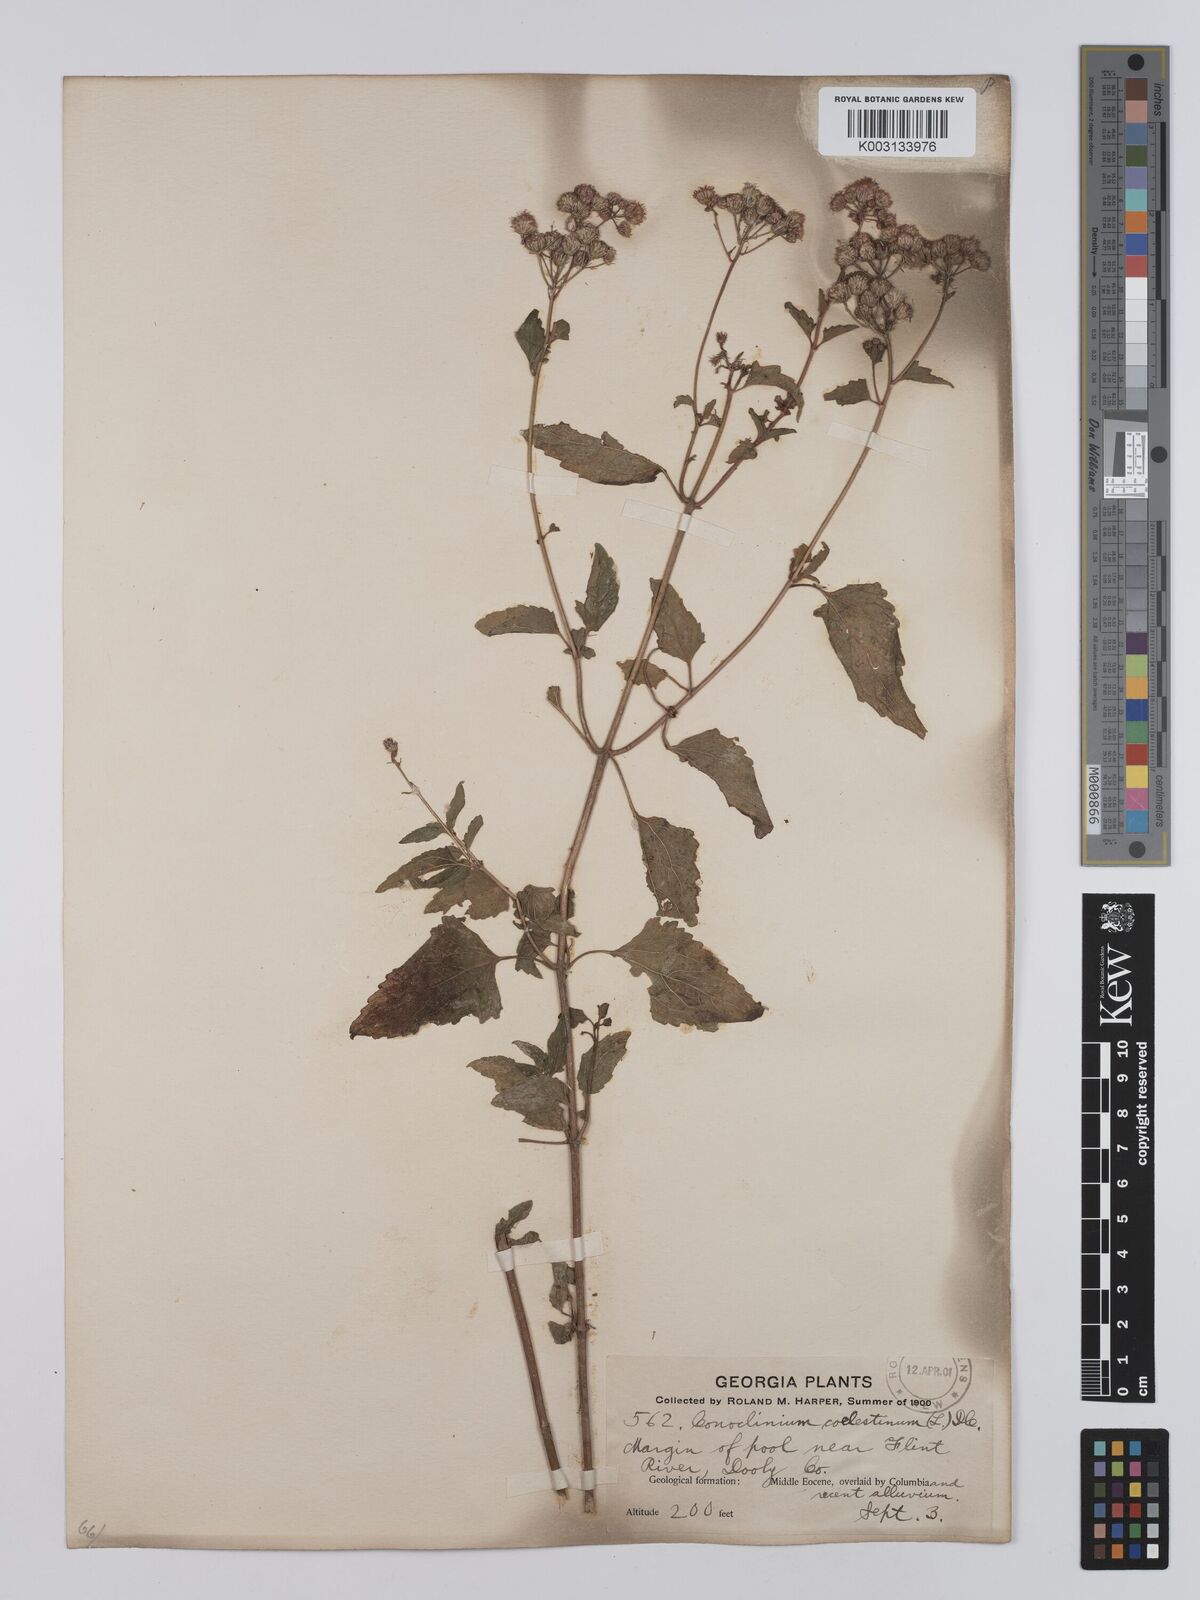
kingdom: Plantae
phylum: Tracheophyta
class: Magnoliopsida
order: Asterales
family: Asteraceae
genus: Conoclinium
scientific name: Conoclinium coelestinum
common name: Blue mistflower
